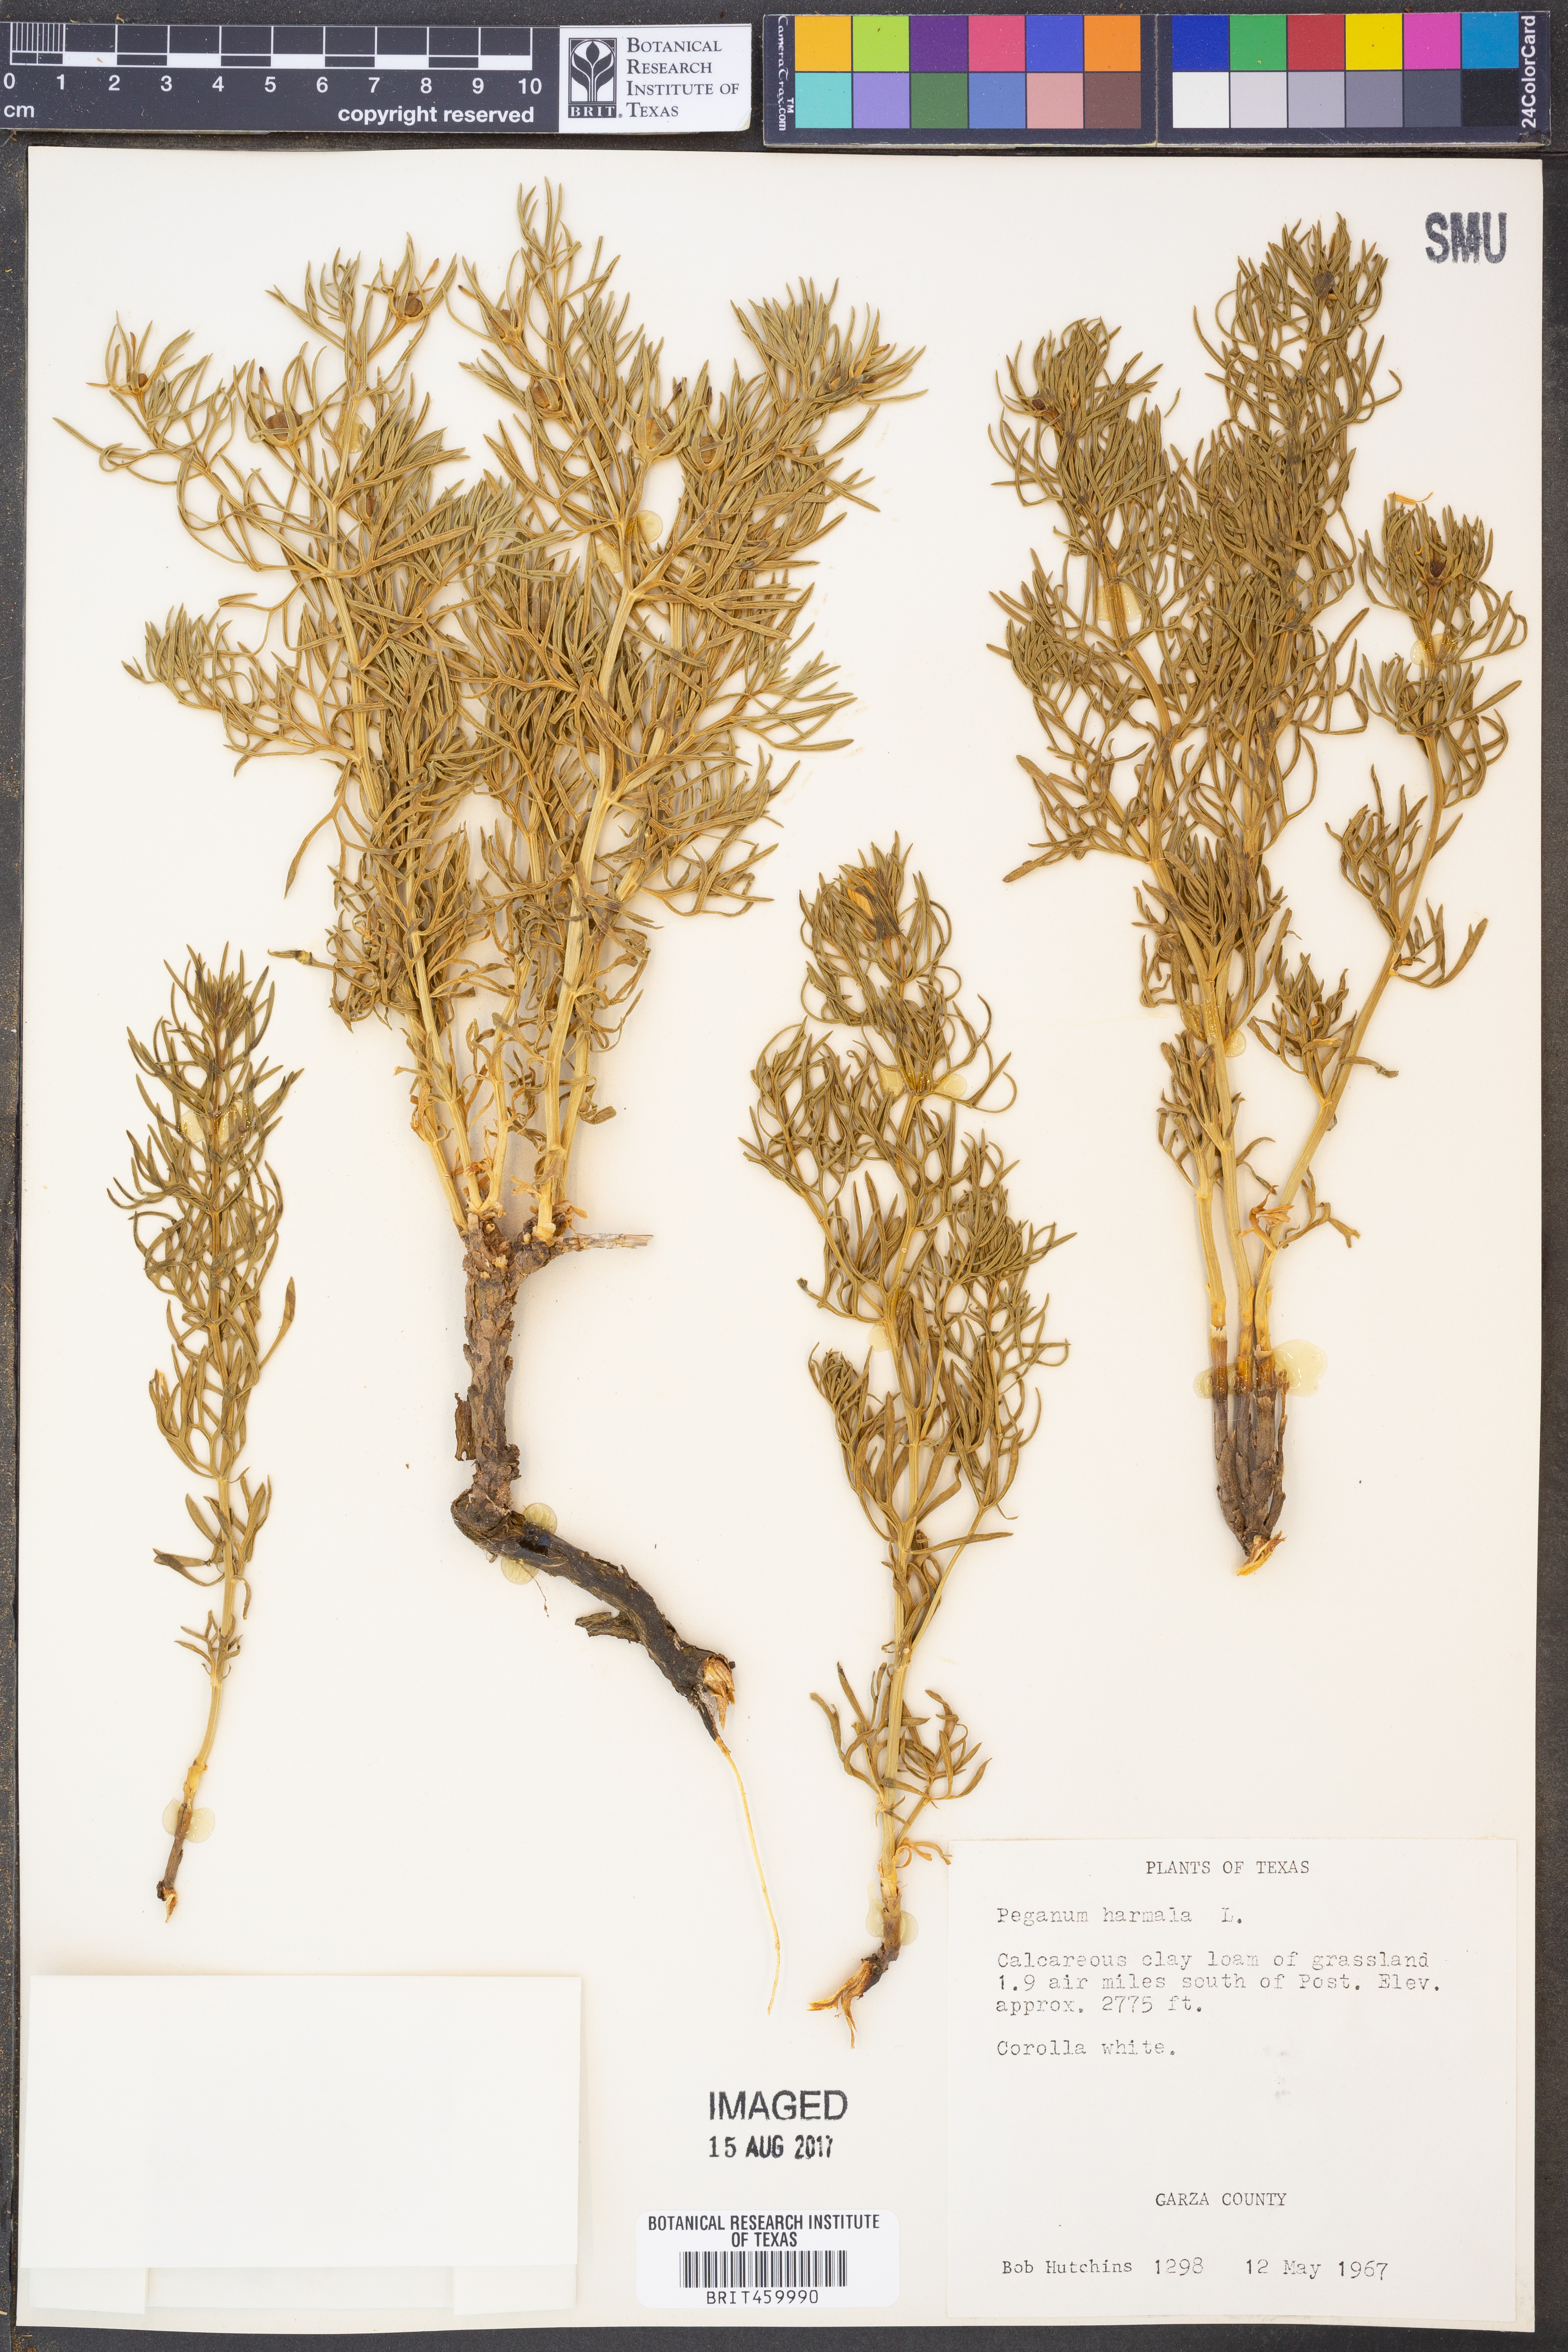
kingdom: Plantae
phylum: Tracheophyta
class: Magnoliopsida
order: Sapindales
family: Tetradiclidaceae
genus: Peganum
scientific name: Peganum harmala
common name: Harmal peganum
